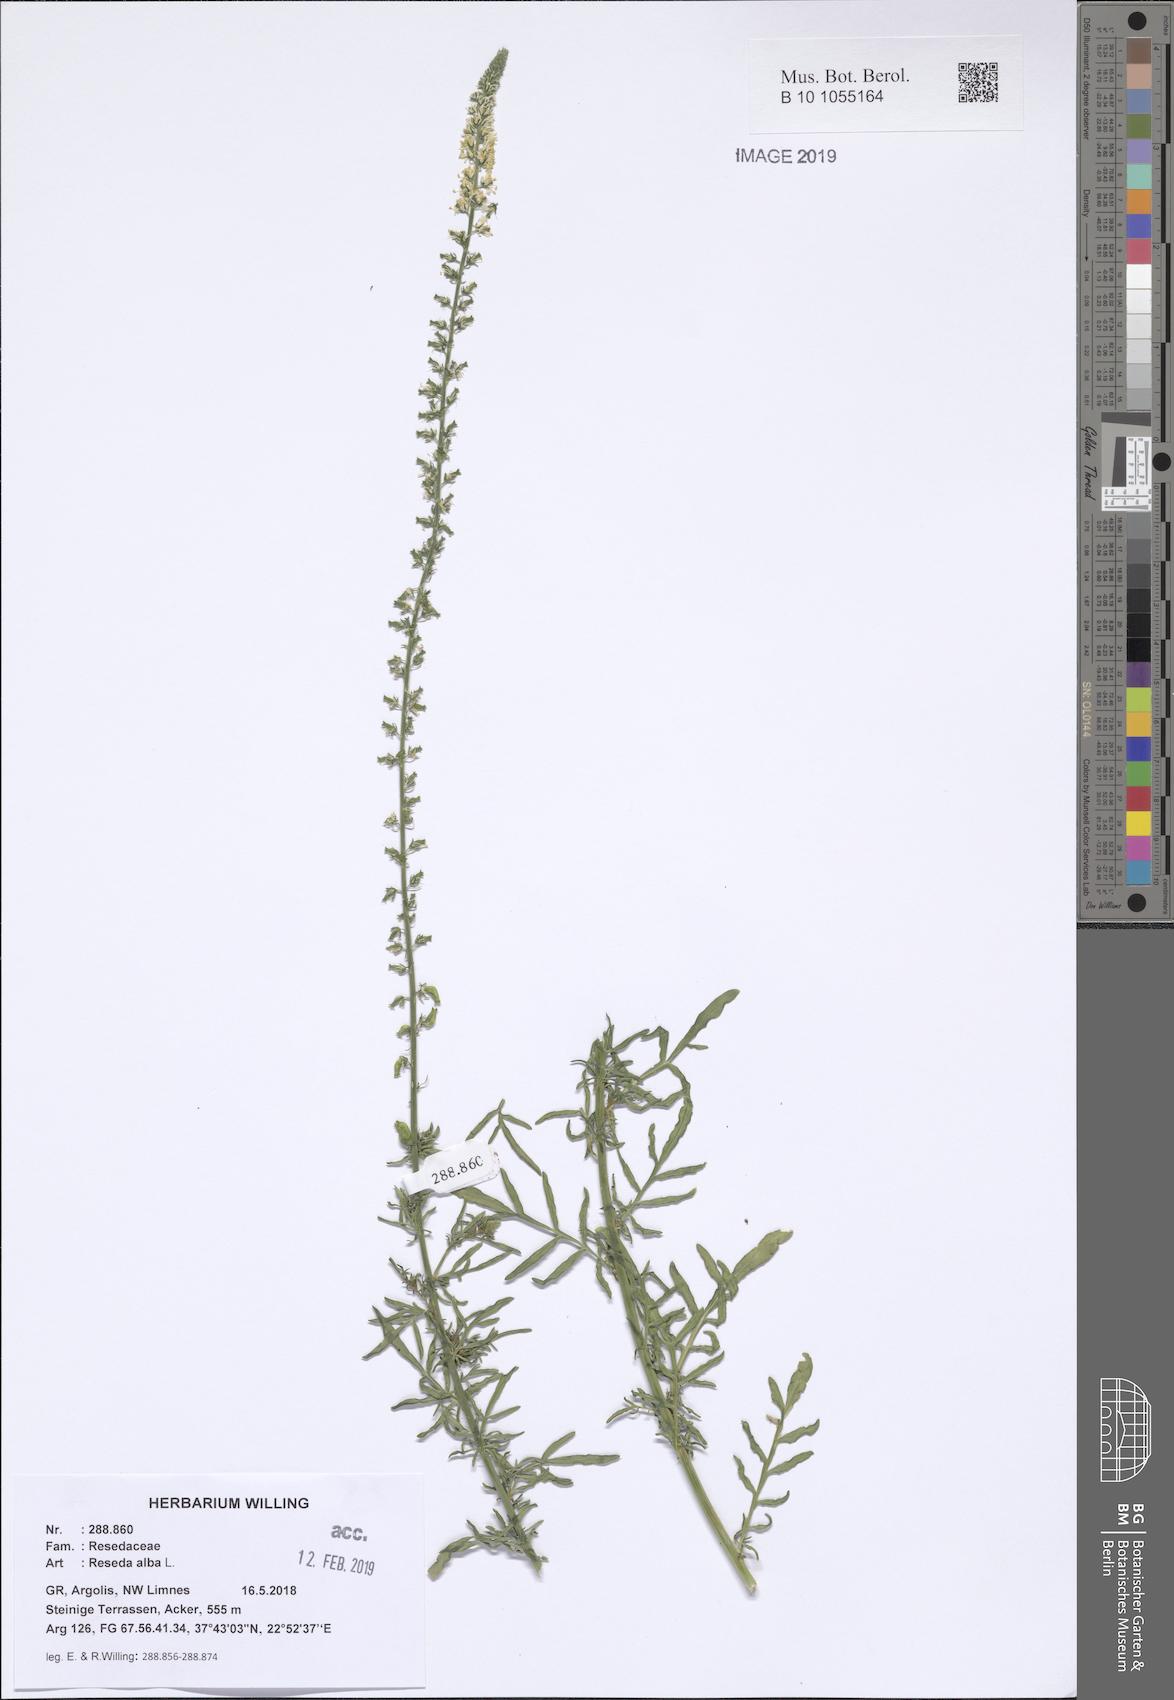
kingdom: Plantae
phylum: Tracheophyta
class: Magnoliopsida
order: Brassicales
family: Resedaceae
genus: Reseda
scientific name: Reseda alba
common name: White mignonette
